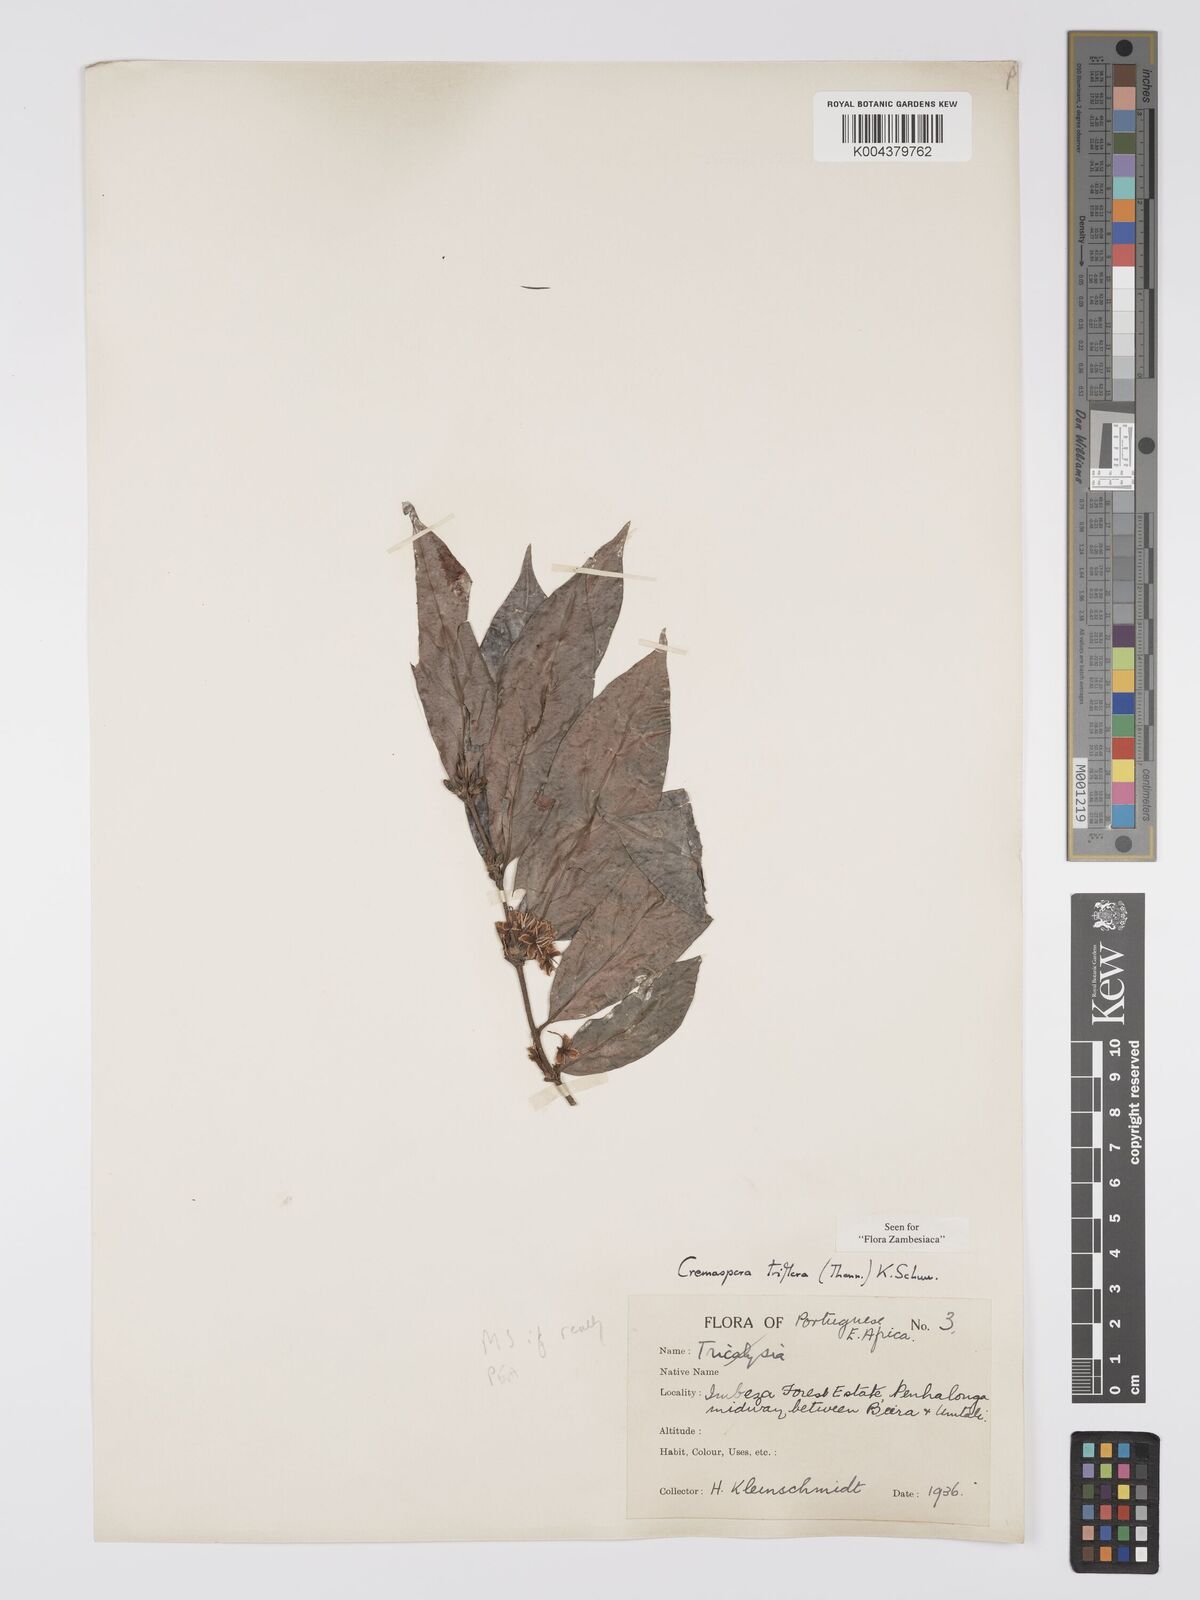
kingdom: Plantae
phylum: Tracheophyta
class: Magnoliopsida
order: Gentianales
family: Rubiaceae
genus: Cremaspora
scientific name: Cremaspora triflora
